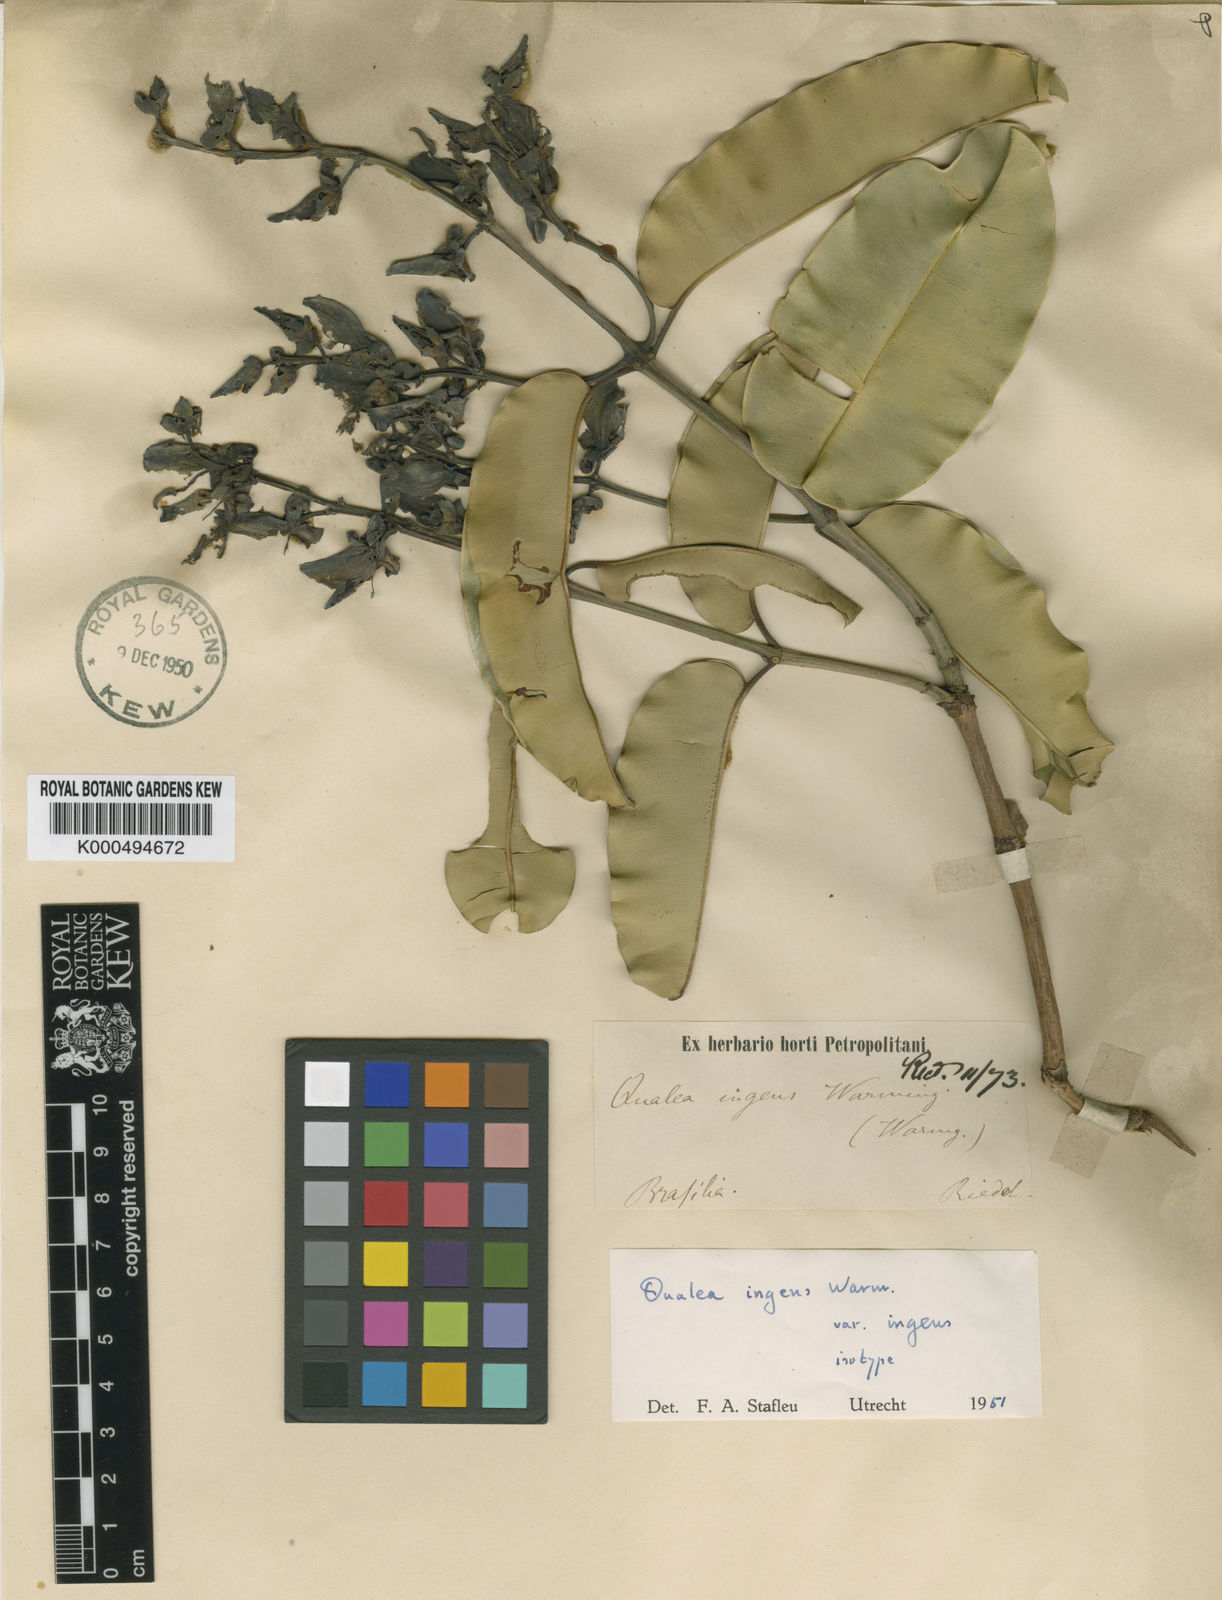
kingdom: Plantae
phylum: Tracheophyta
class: Magnoliopsida
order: Myrtales
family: Vochysiaceae
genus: Qualea
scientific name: Qualea ingens
